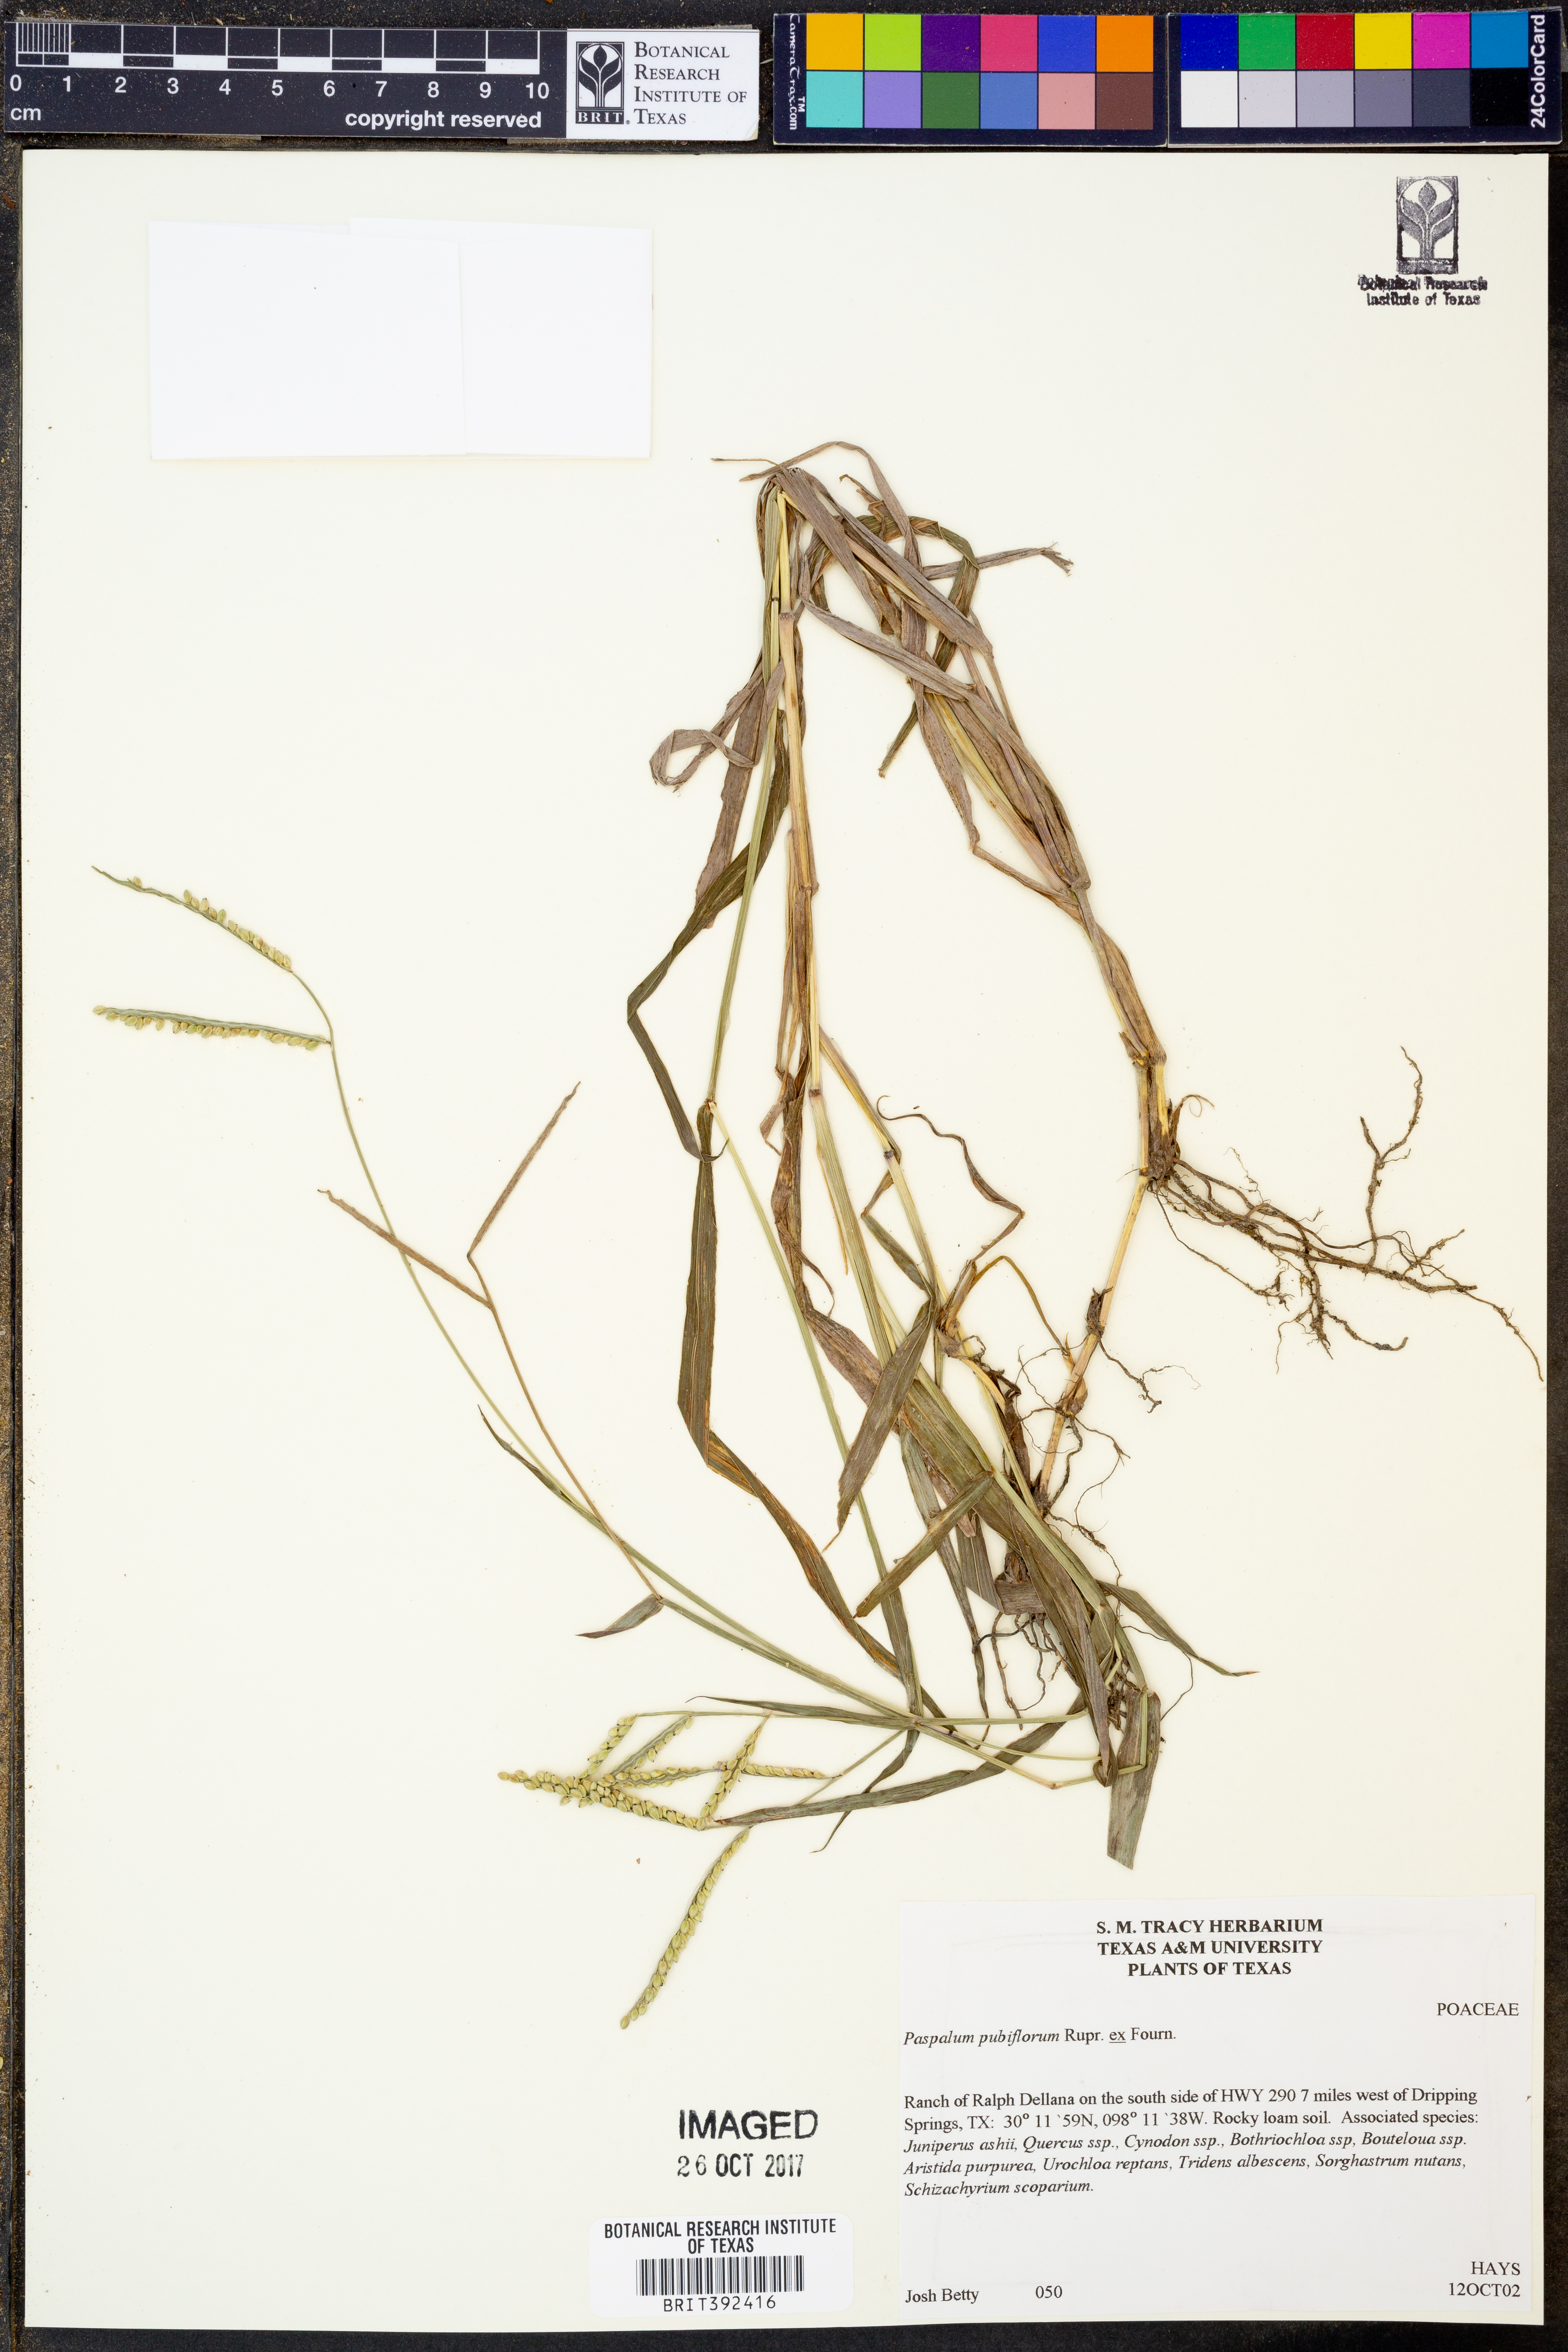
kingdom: Plantae
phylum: Tracheophyta
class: Liliopsida
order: Poales
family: Poaceae
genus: Paspalum
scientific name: Paspalum pubiflorum
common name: Hairy-seed paspalum
